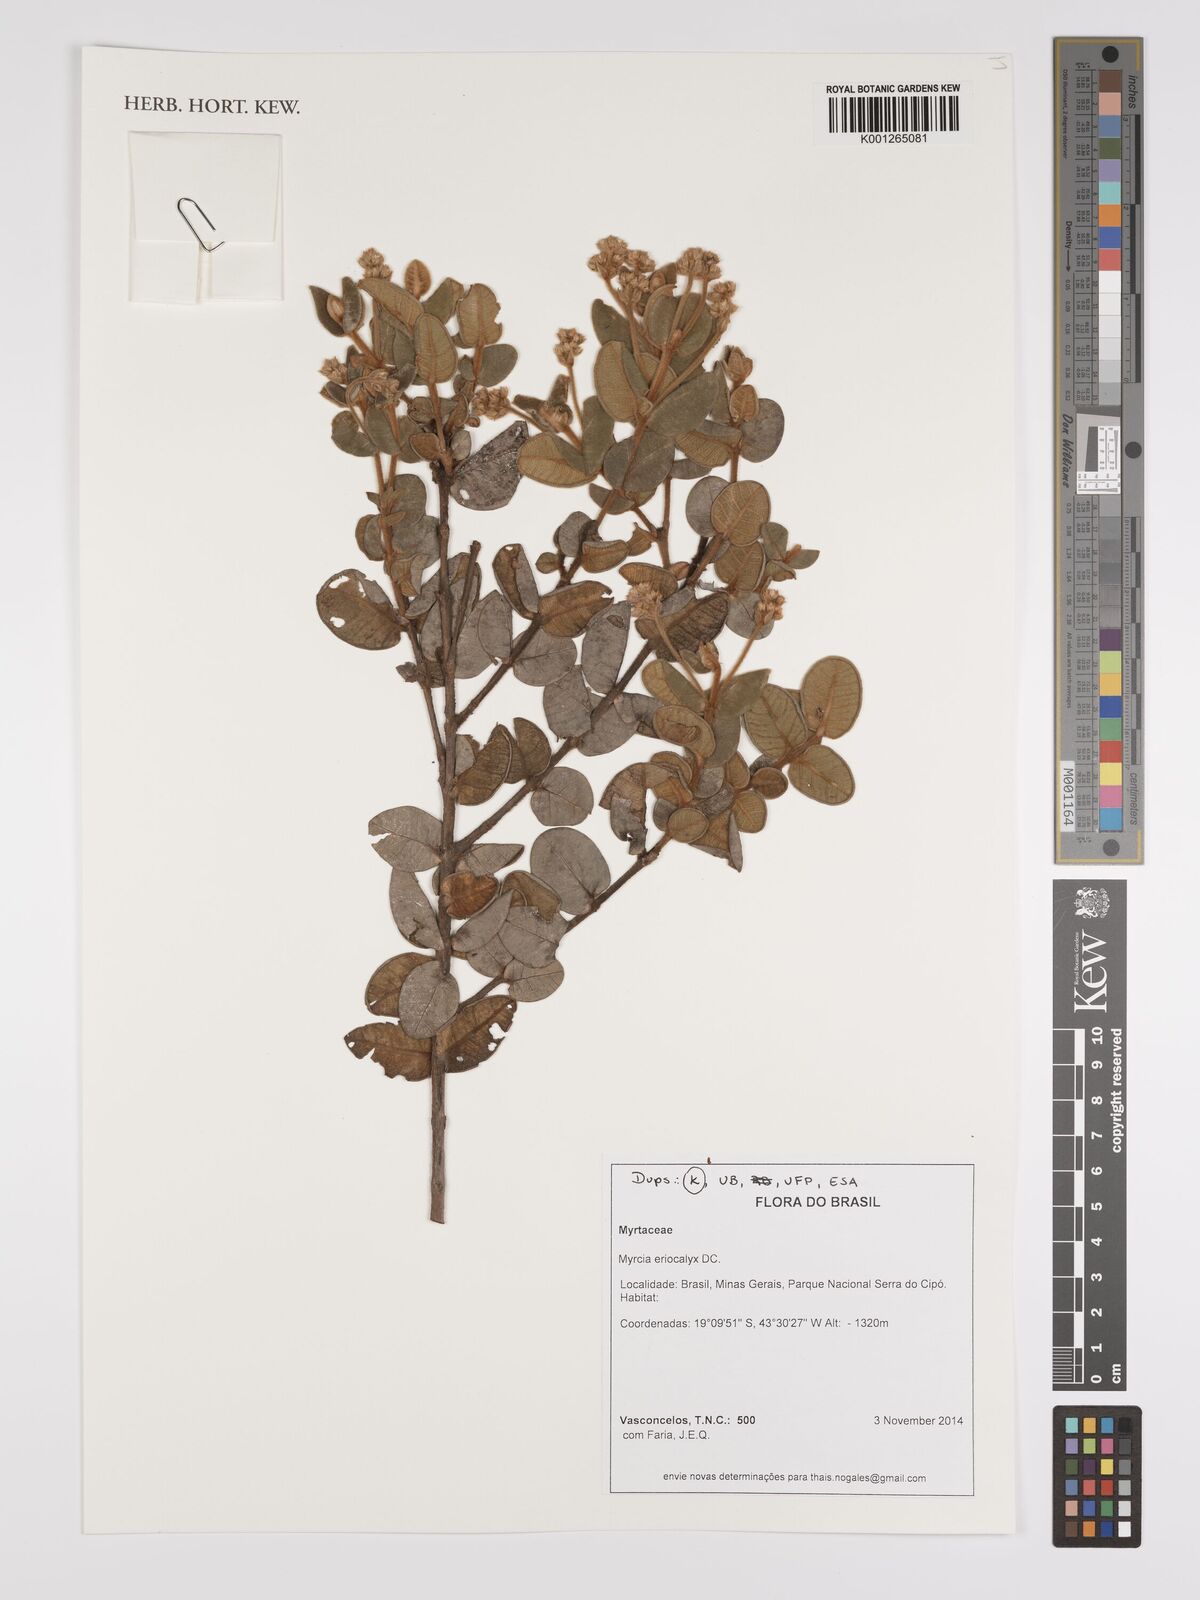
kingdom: Plantae
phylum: Tracheophyta
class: Magnoliopsida
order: Myrtales
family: Myrtaceae
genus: Myrcia
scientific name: Myrcia eriocalyx
